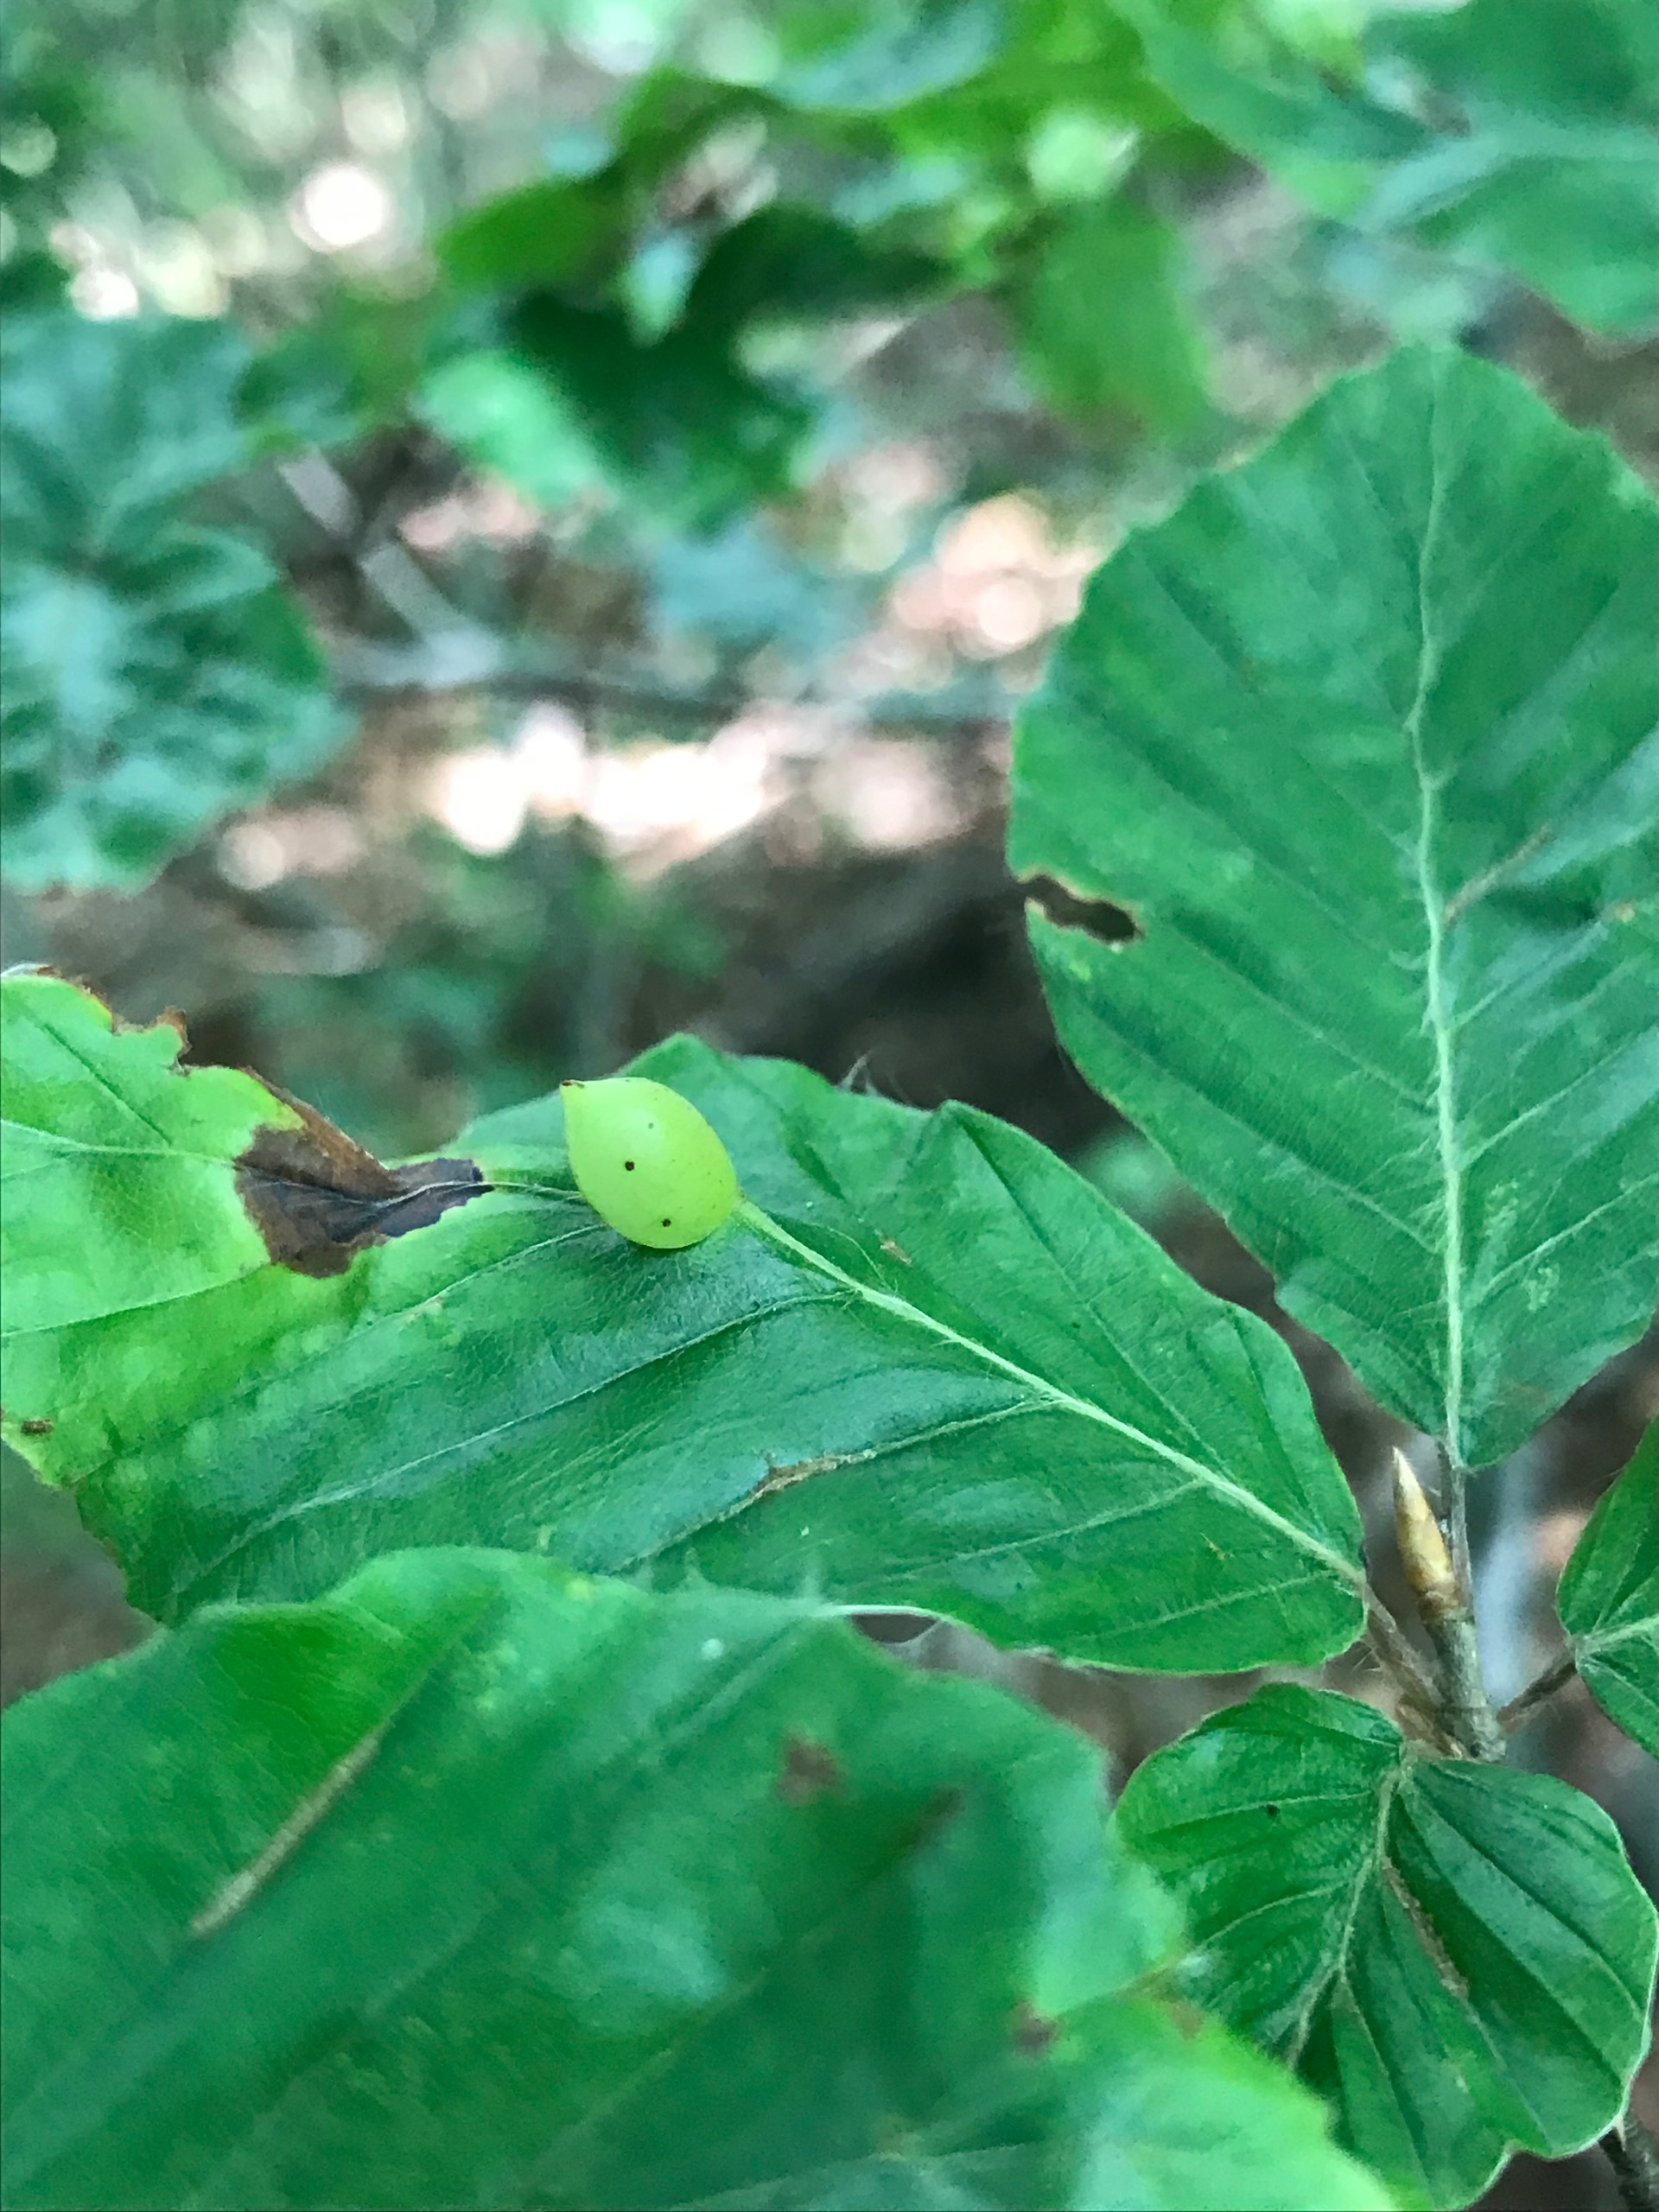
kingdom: Animalia
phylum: Arthropoda
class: Insecta
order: Diptera
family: Cecidomyiidae
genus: Mikiola
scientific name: Mikiola fagi
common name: Bøgegalmyg
